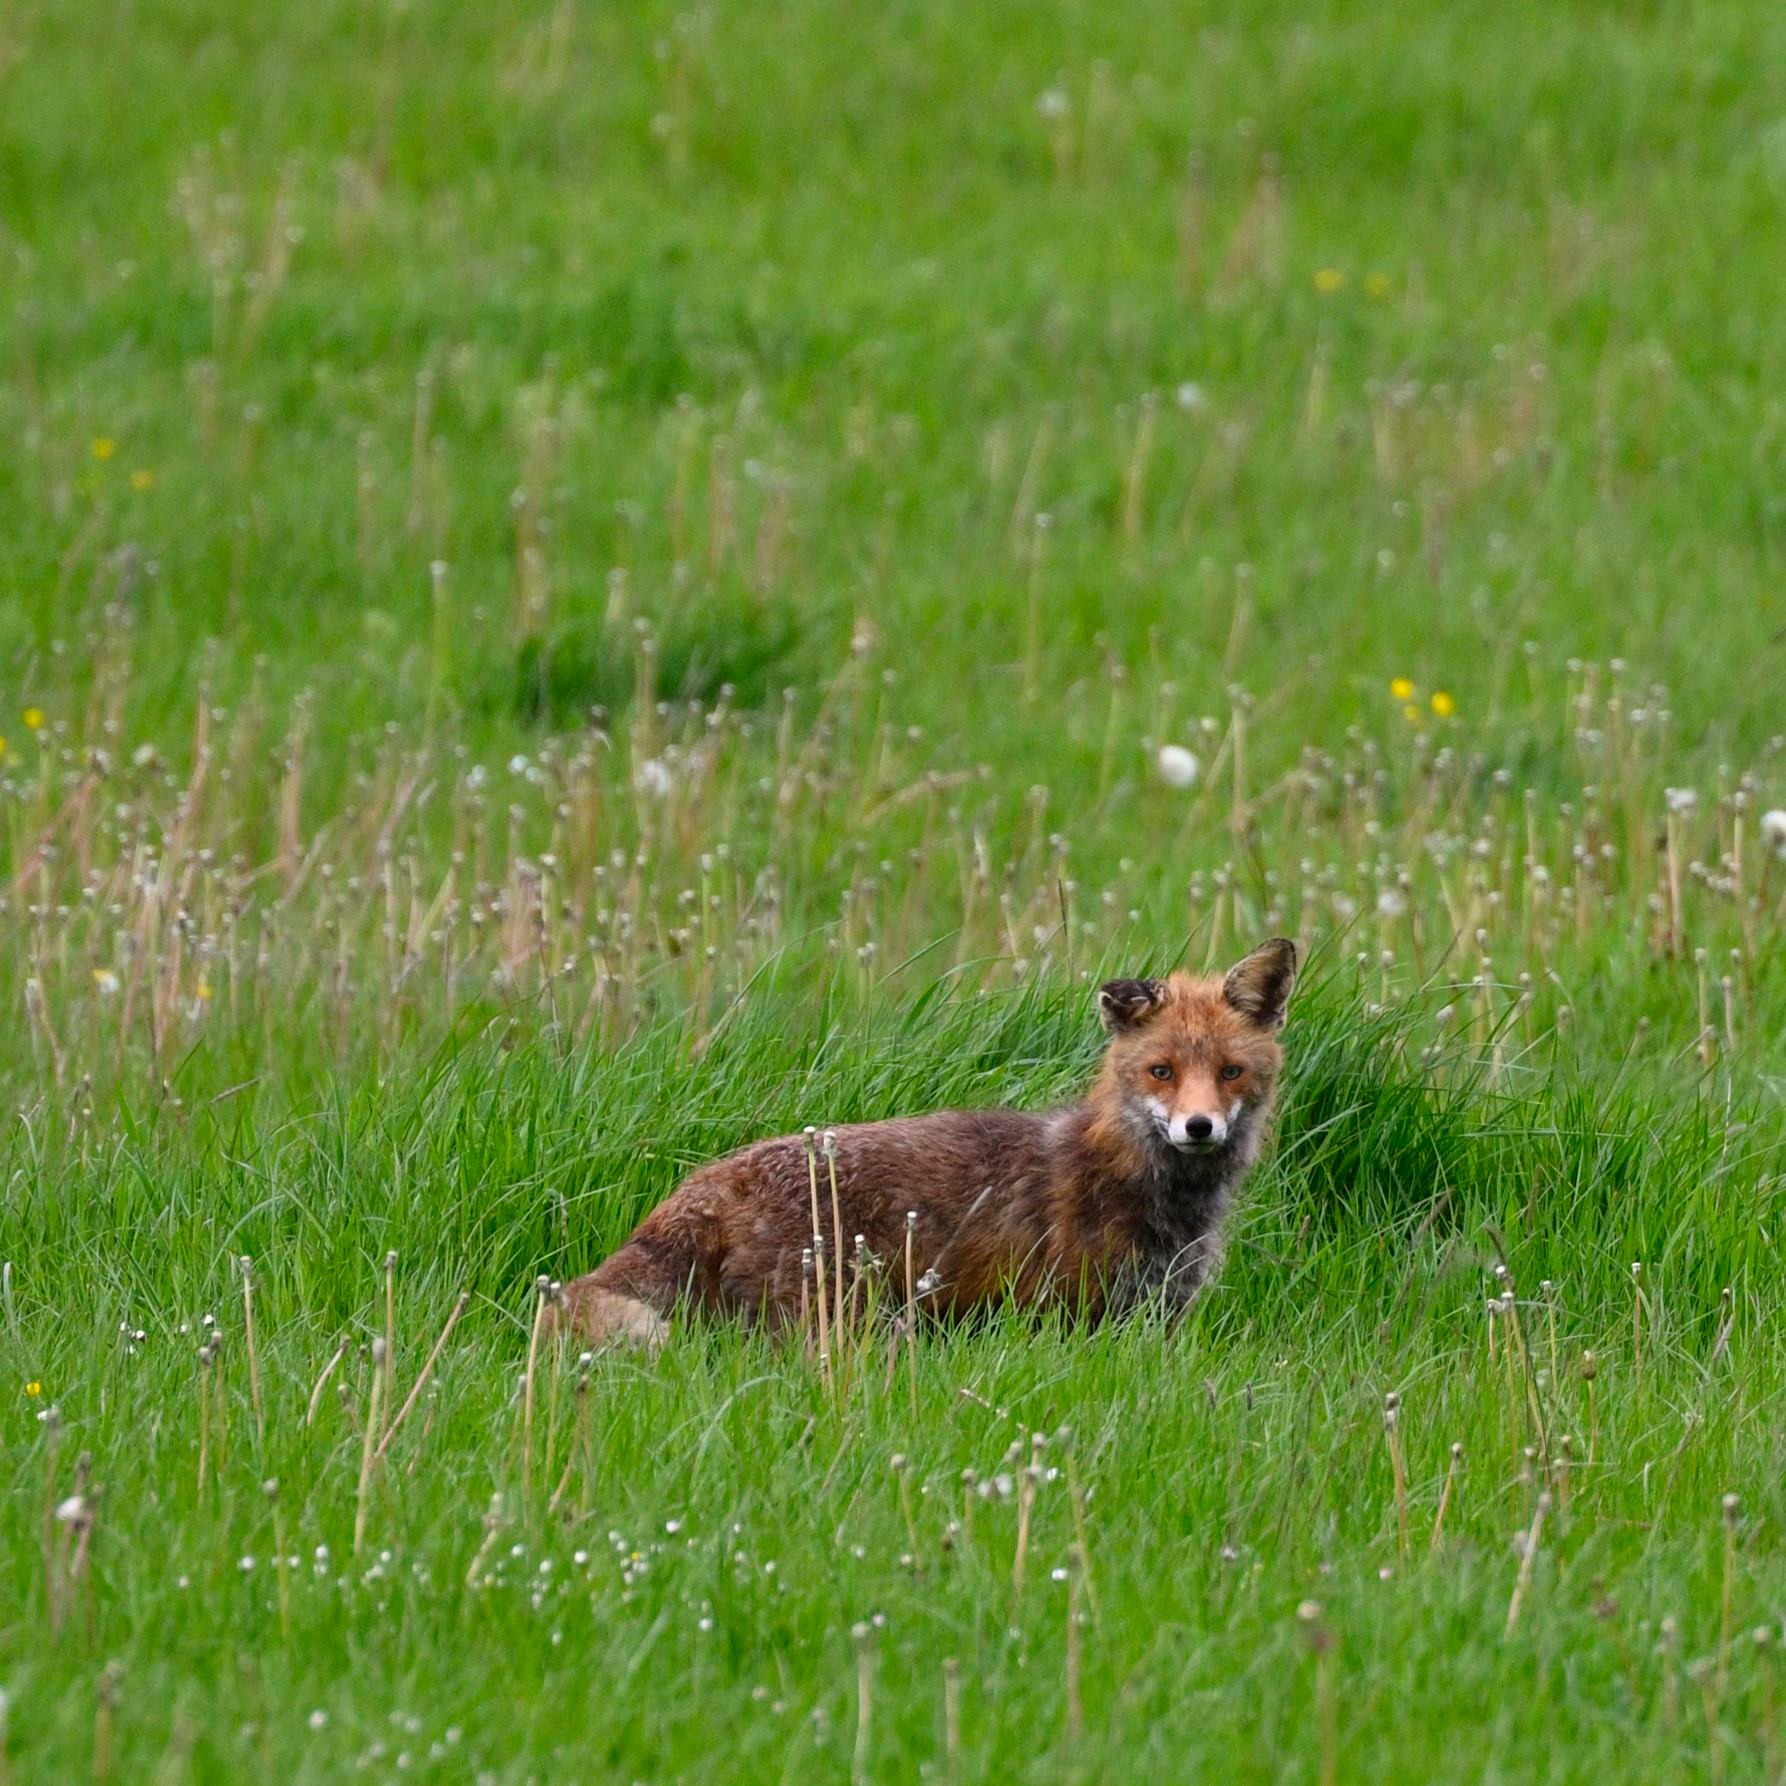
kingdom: Animalia
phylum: Chordata
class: Mammalia
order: Carnivora
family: Canidae
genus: Vulpes
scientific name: Vulpes vulpes
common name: Ræv
